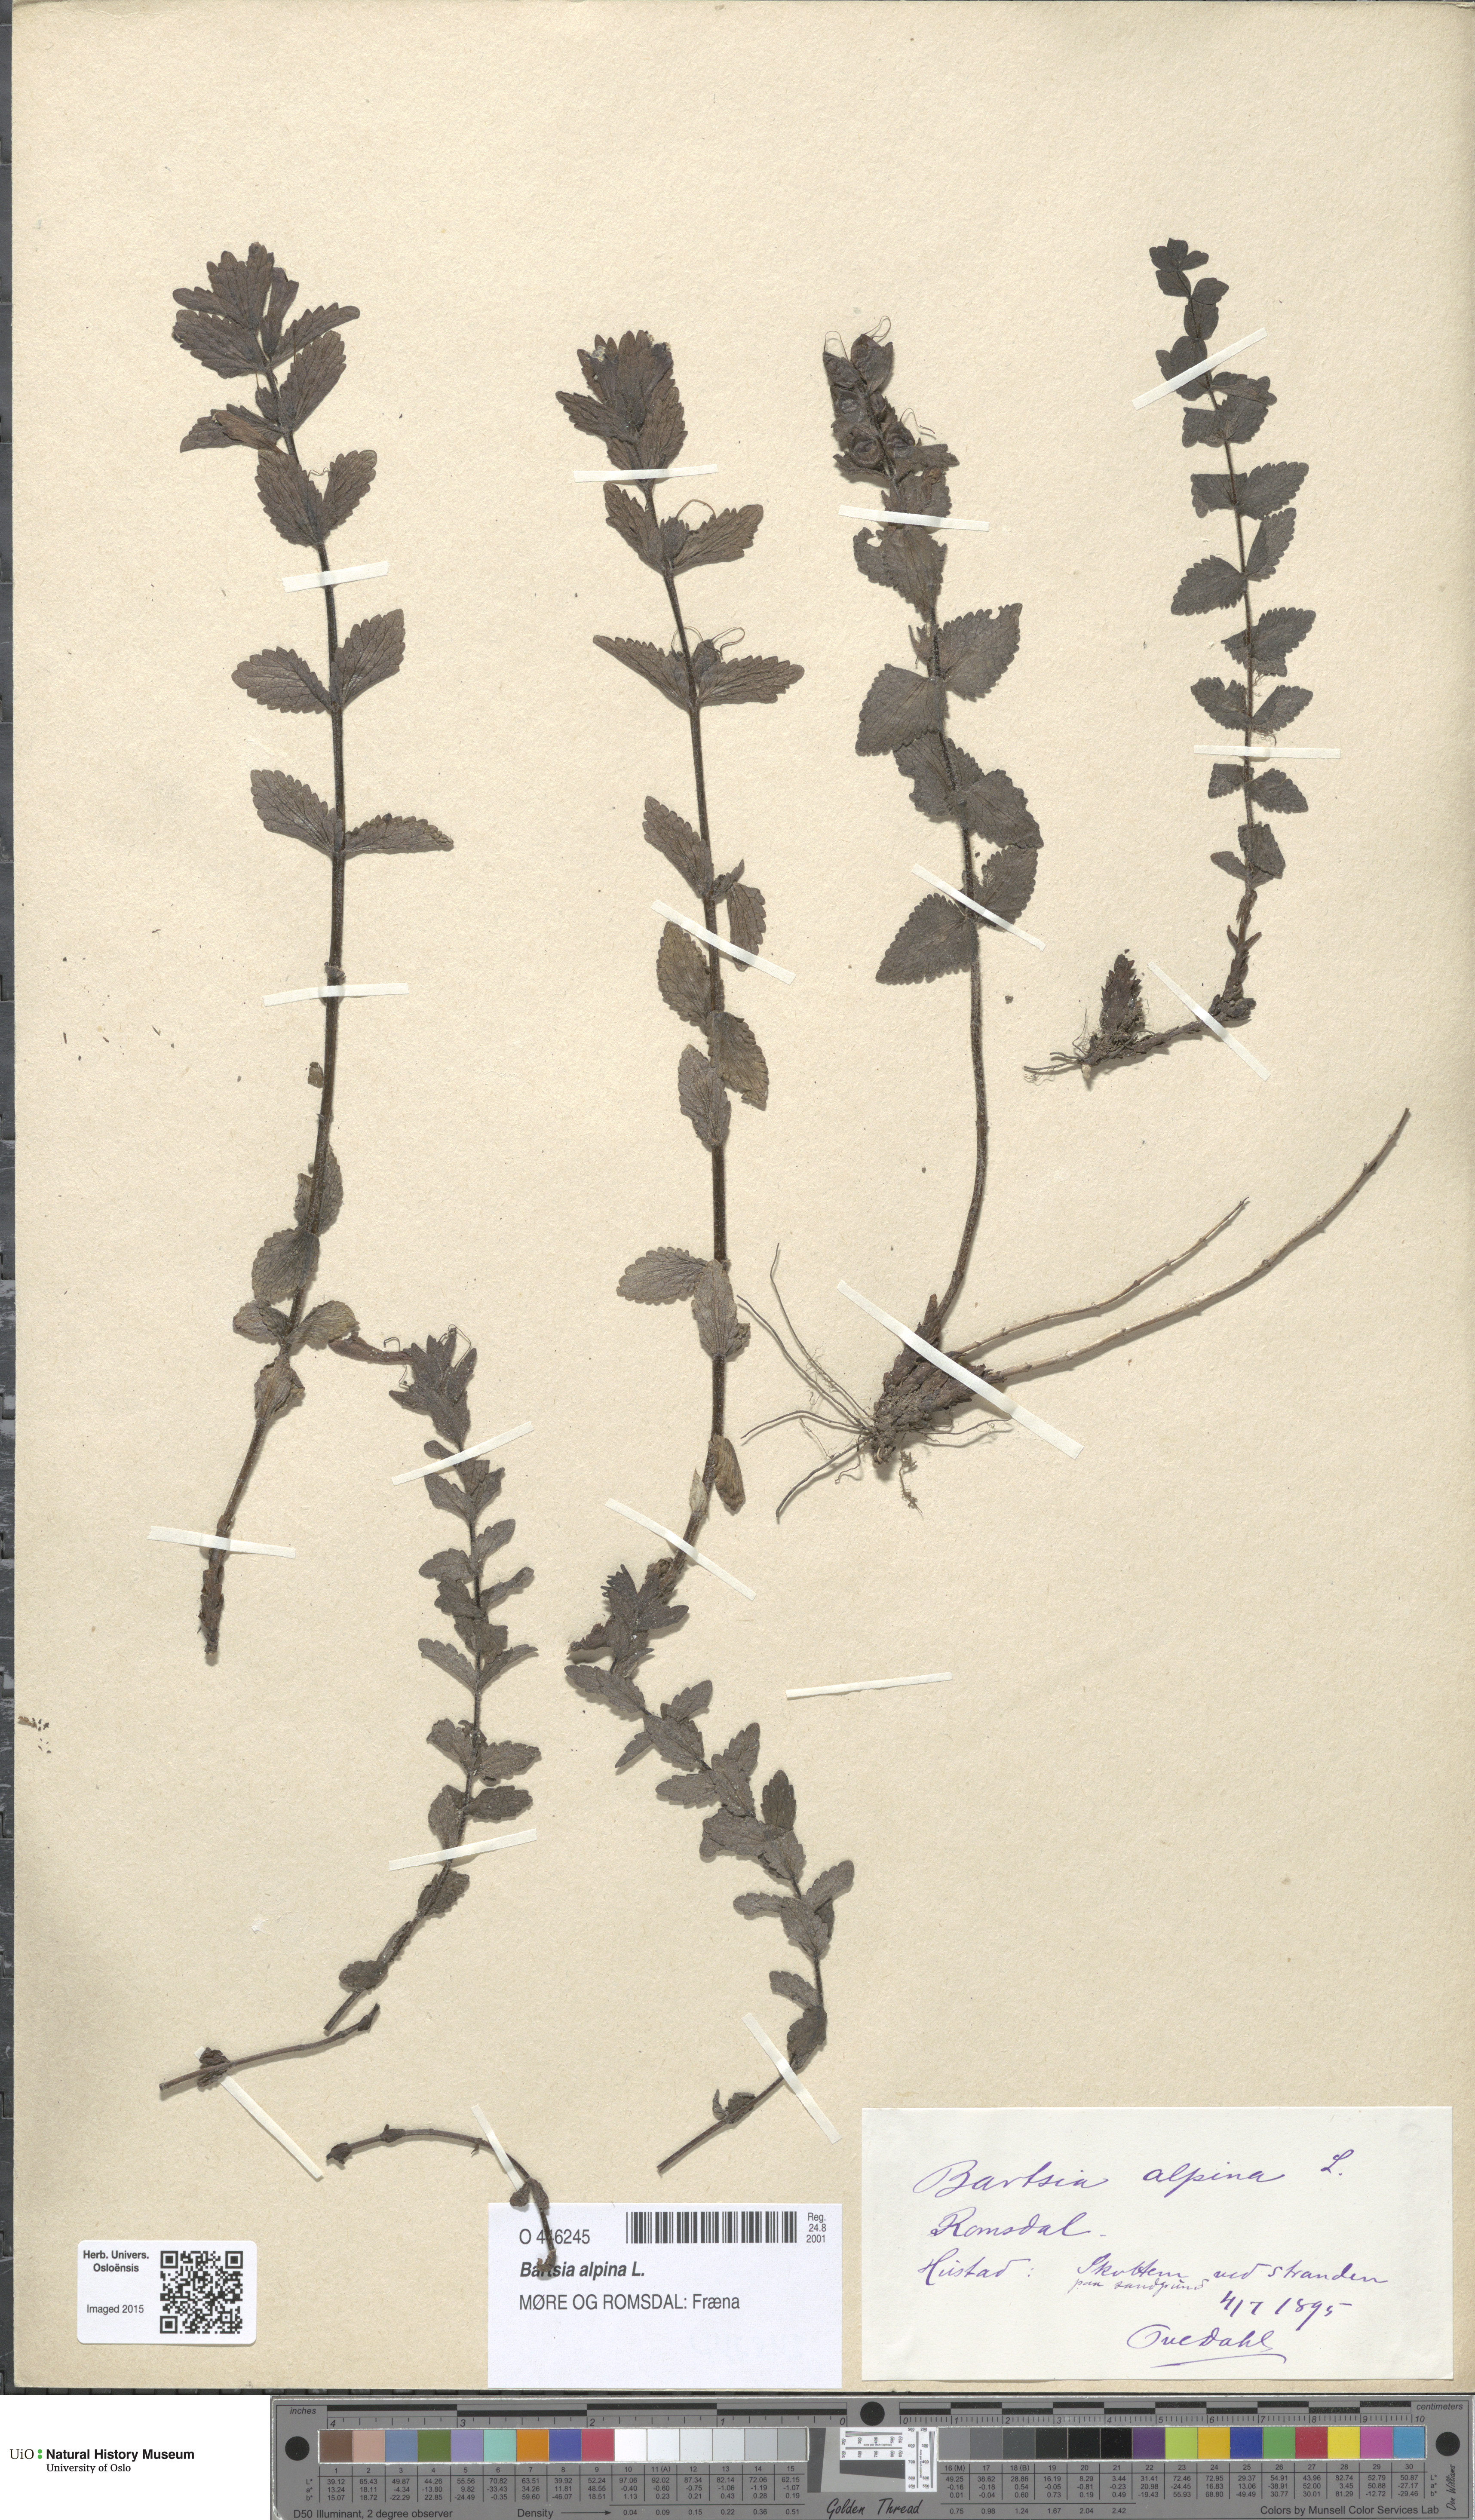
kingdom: Plantae
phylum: Tracheophyta
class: Magnoliopsida
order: Lamiales
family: Orobanchaceae
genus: Bartsia
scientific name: Bartsia alpina
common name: Alpine bartsia
